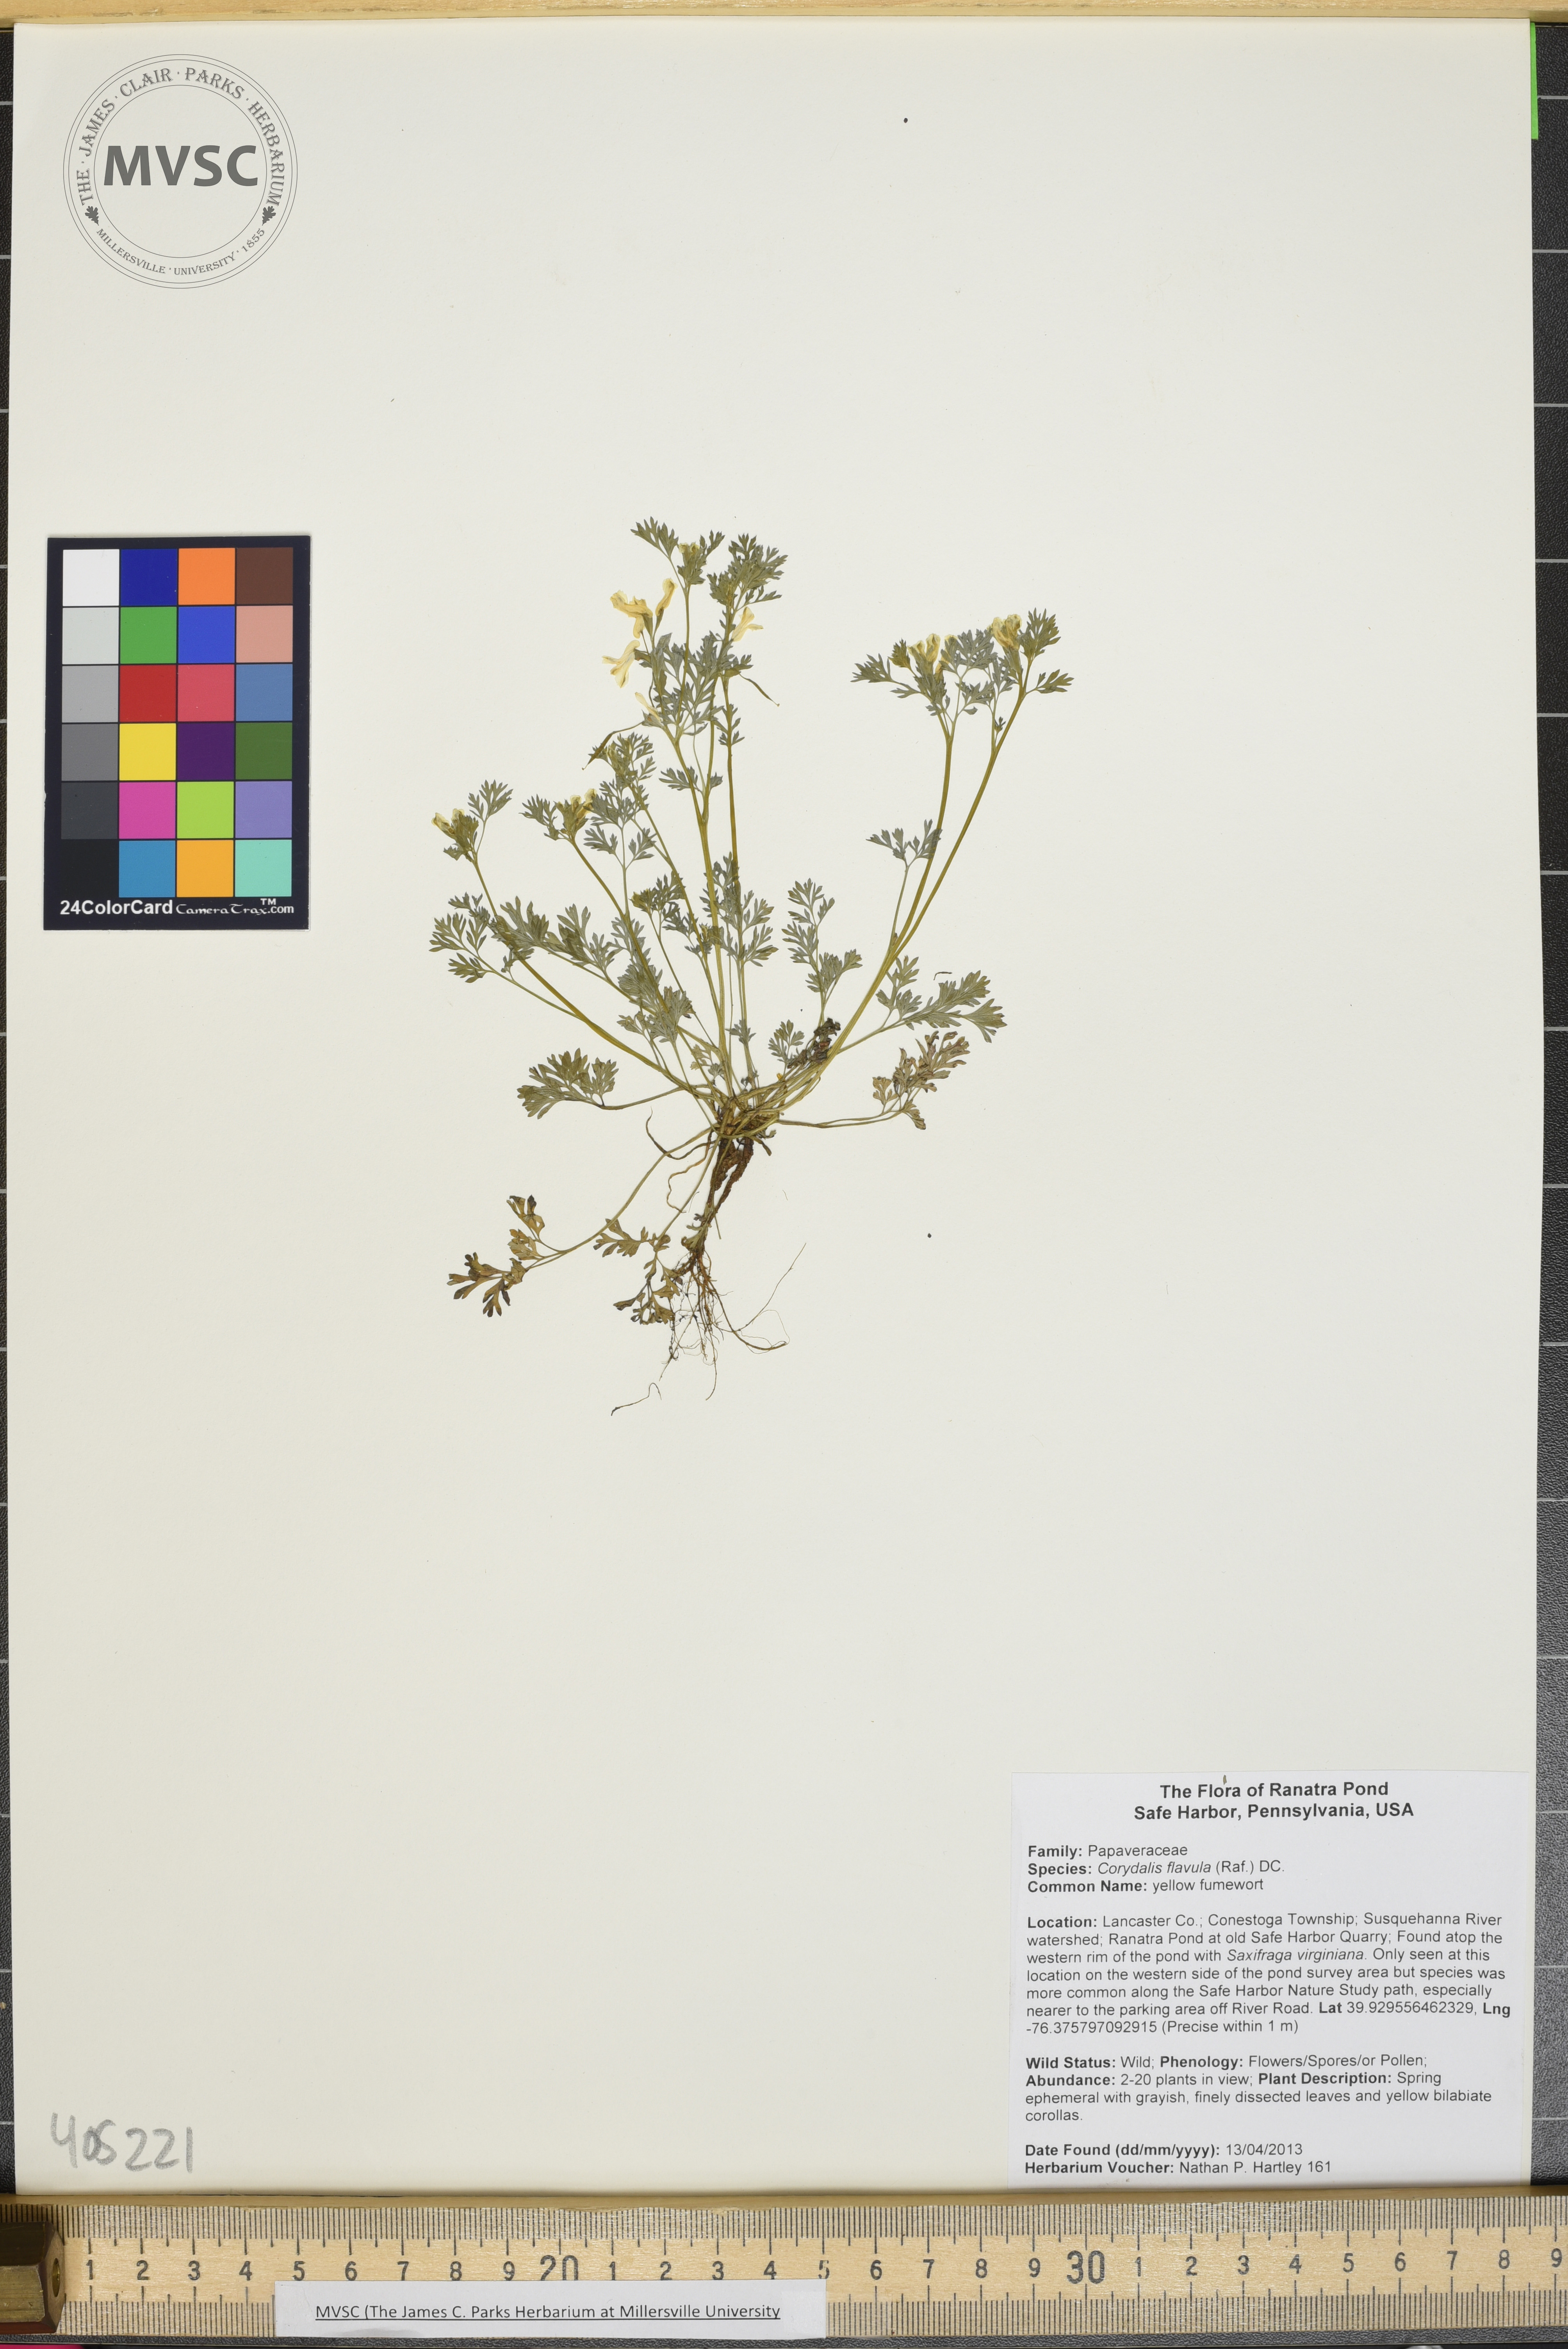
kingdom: Plantae
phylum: Tracheophyta
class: Magnoliopsida
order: Ranunculales
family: Papaveraceae
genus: Corydalis
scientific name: Corydalis flavula
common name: yellow fumewort
